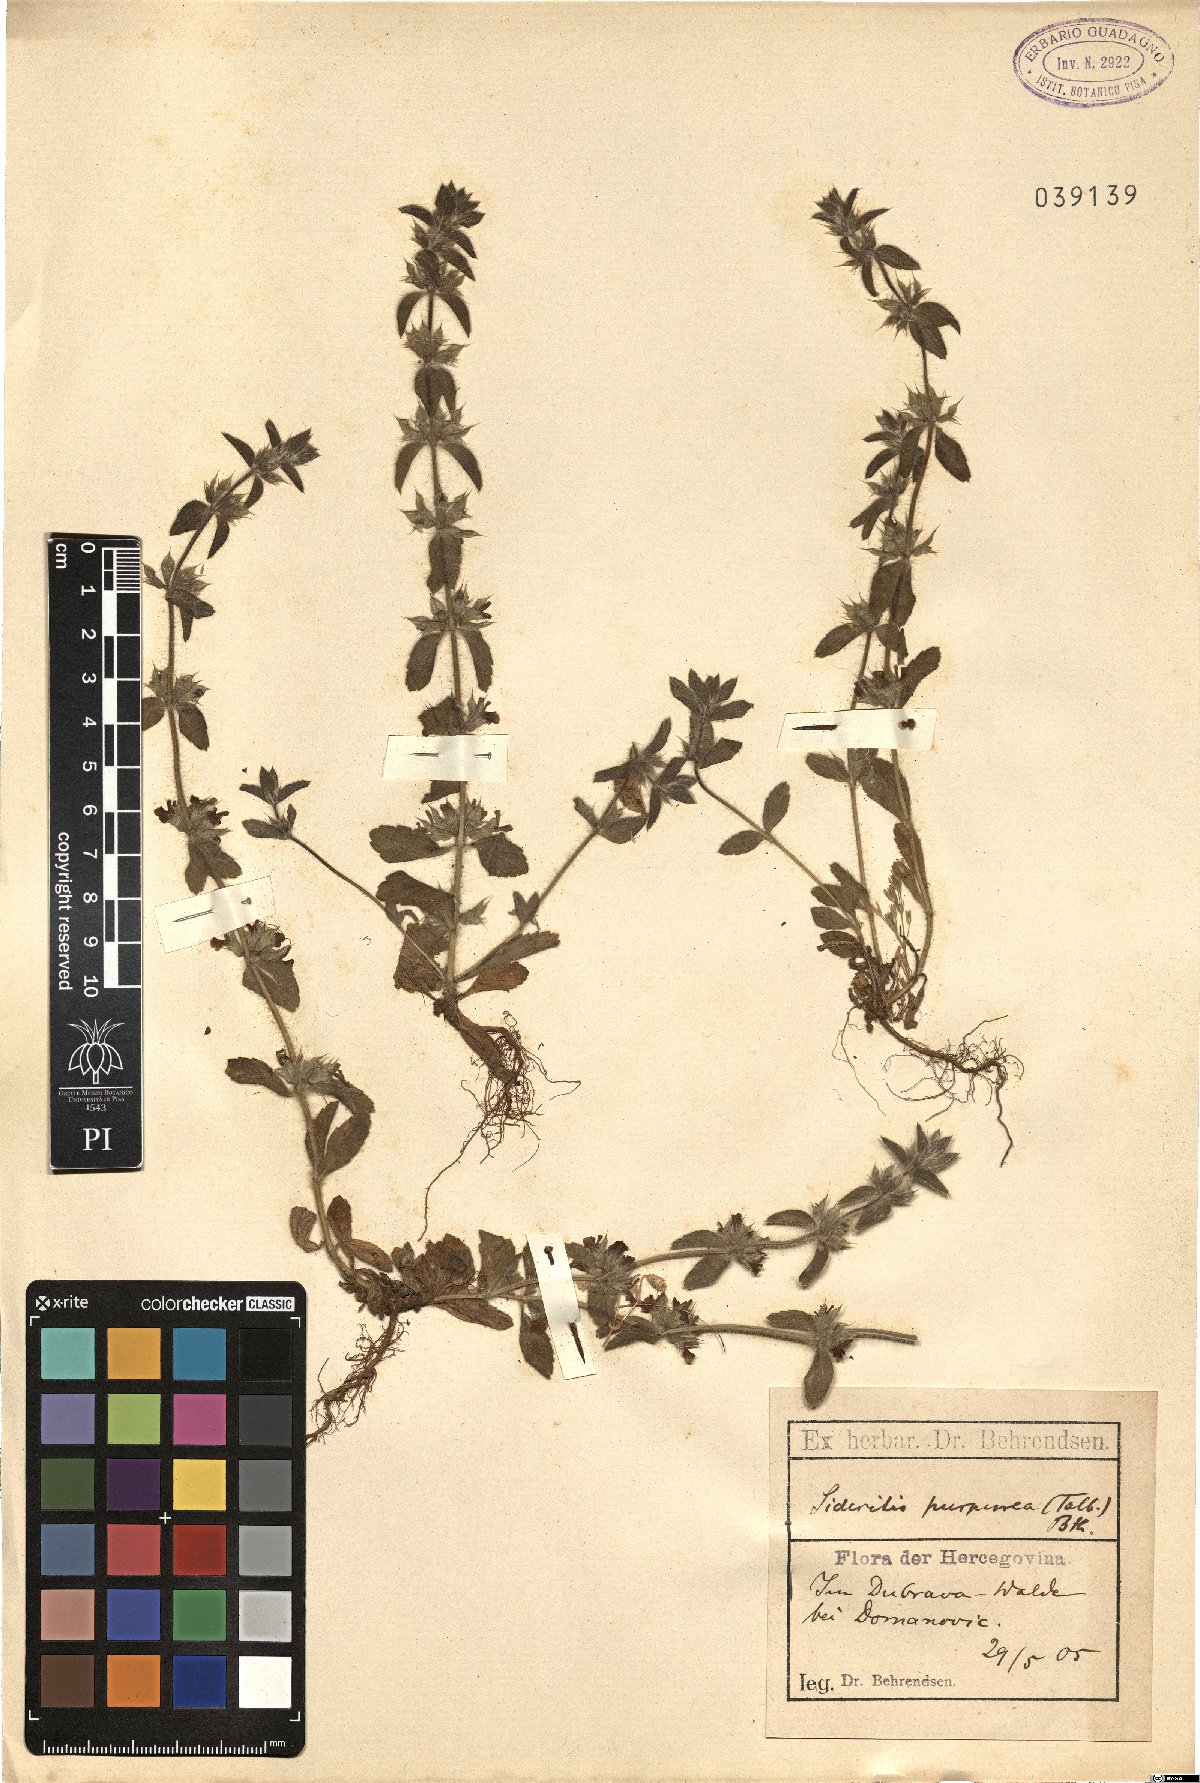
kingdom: Plantae
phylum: Tracheophyta
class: Magnoliopsida
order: Lamiales
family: Lamiaceae
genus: Sideritis
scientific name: Sideritis romana
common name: Simplebeak ironwort
